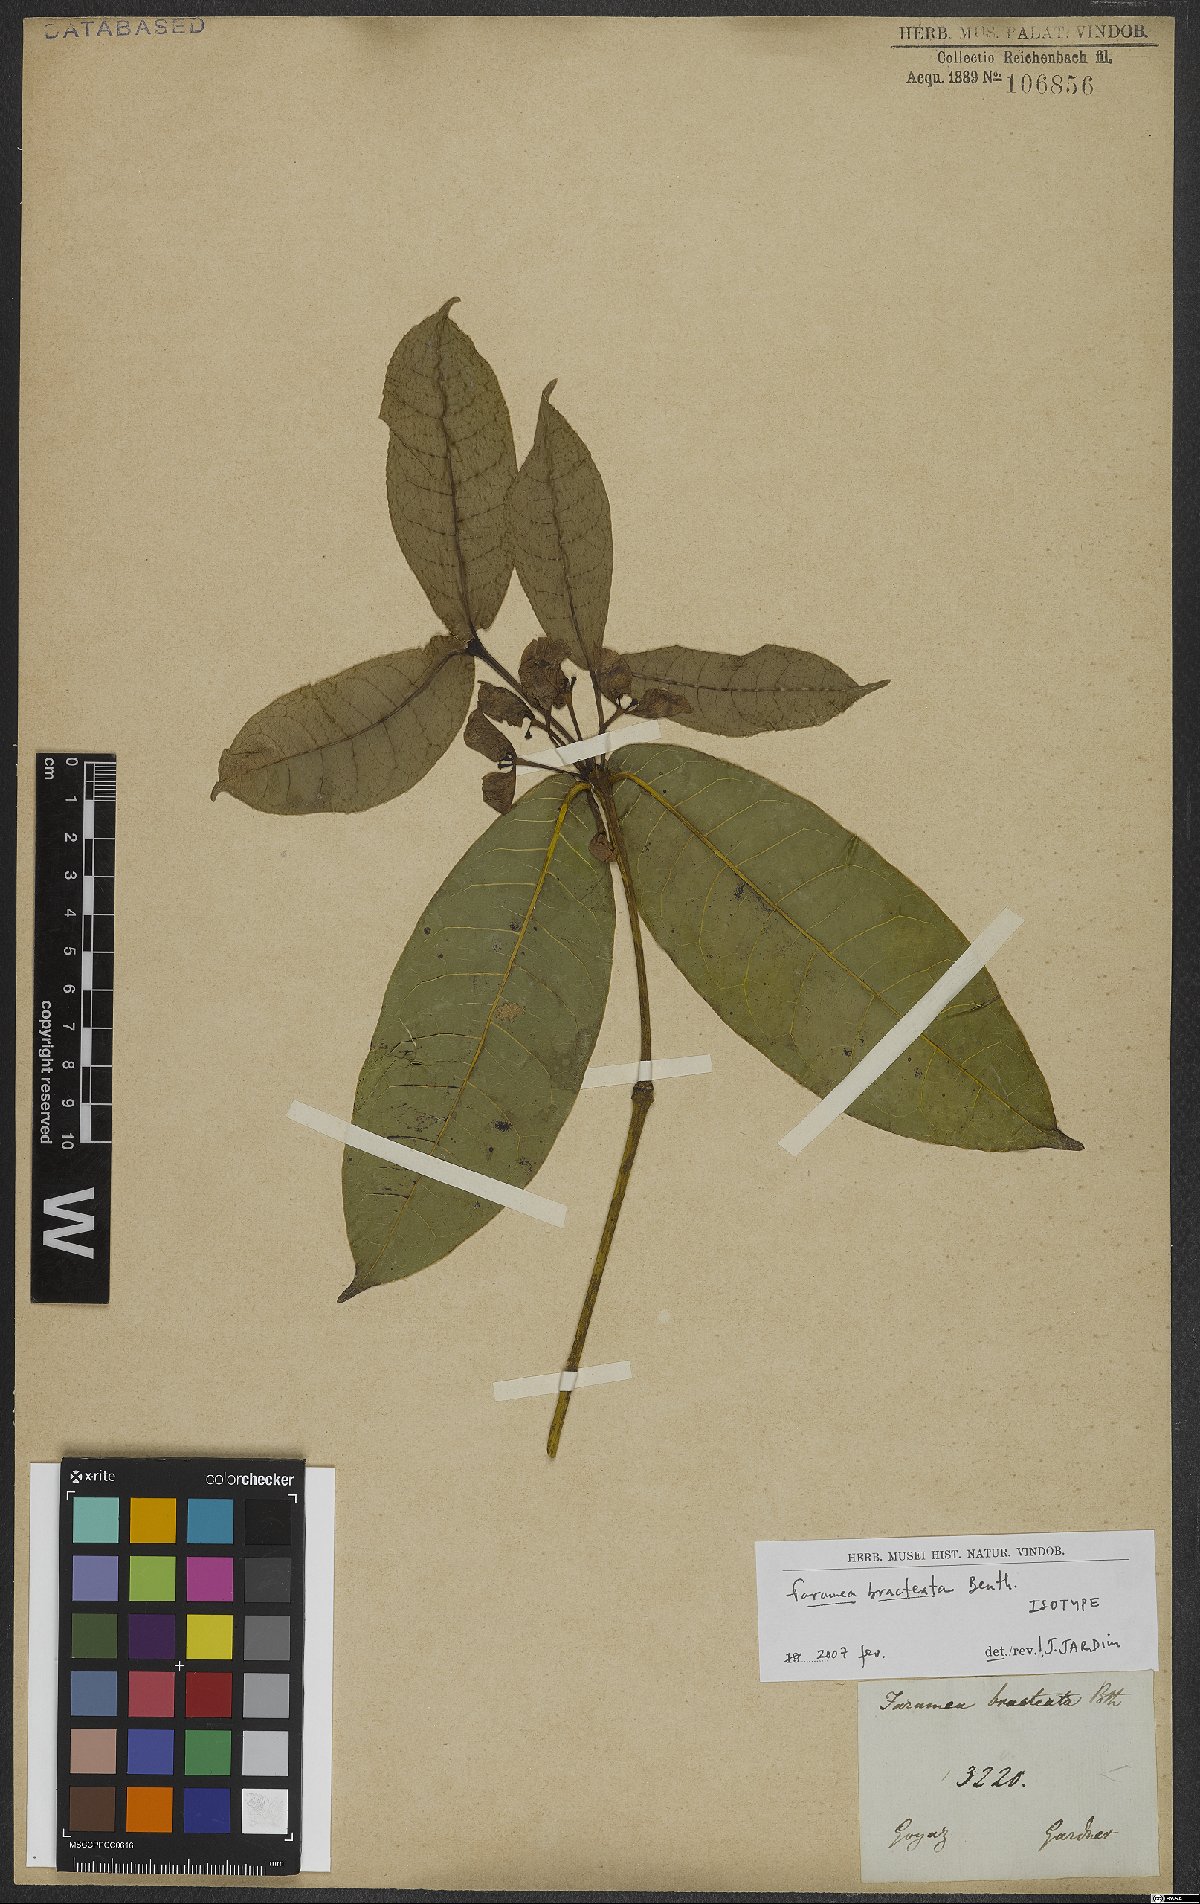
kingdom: Plantae
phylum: Tracheophyta
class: Magnoliopsida
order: Gentianales
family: Rubiaceae
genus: Faramea
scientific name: Faramea bracteata
